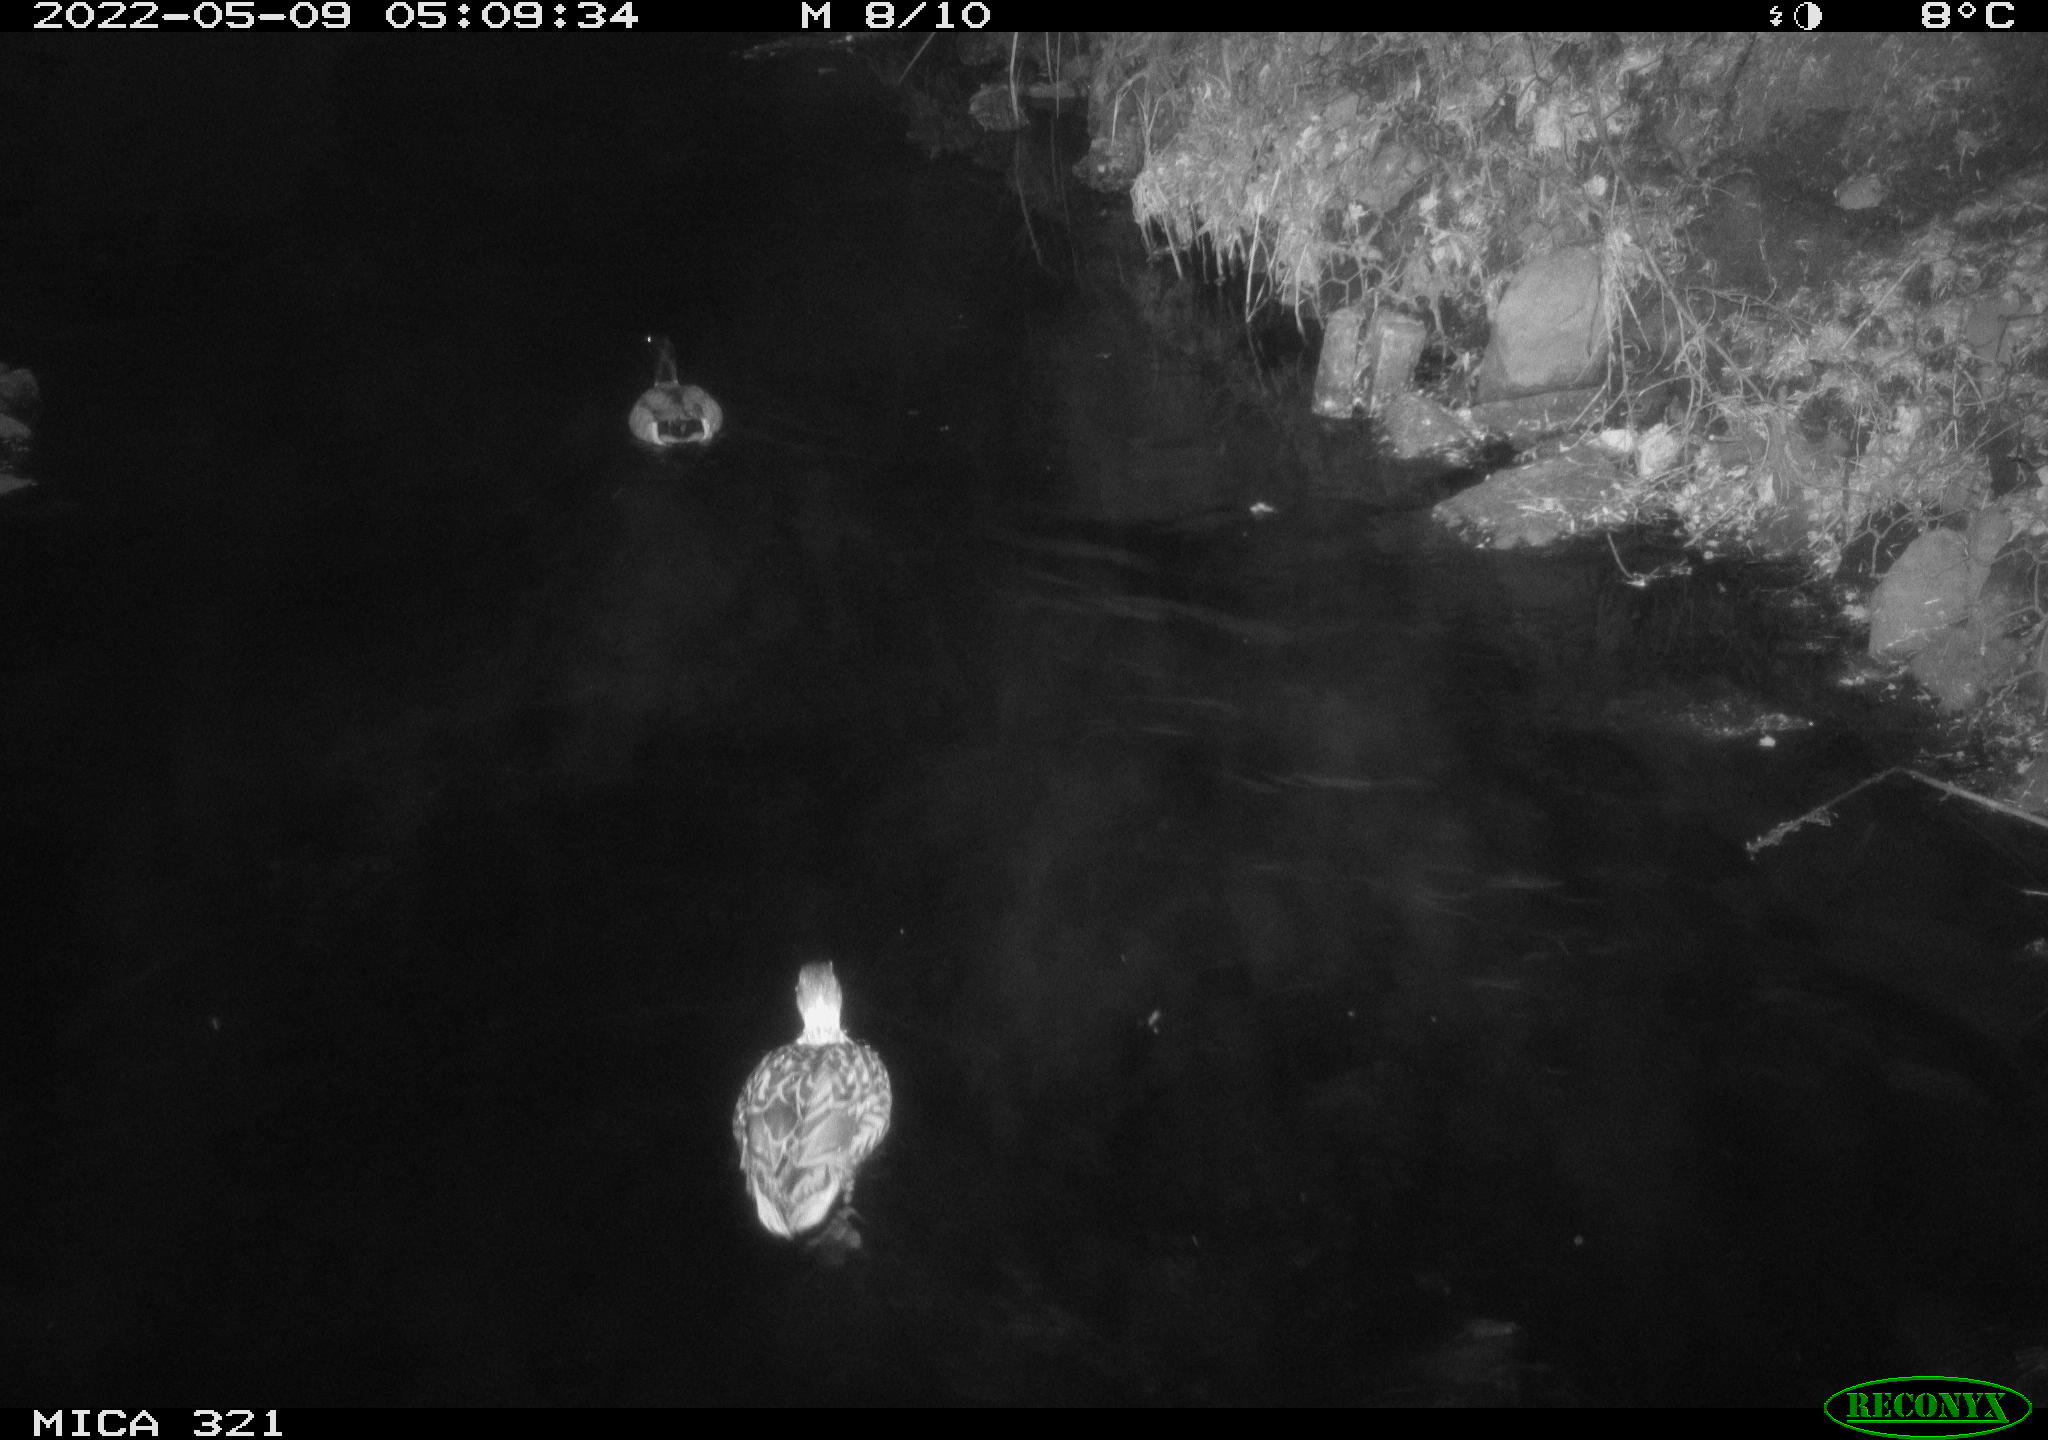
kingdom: Animalia
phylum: Chordata
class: Aves
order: Anseriformes
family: Anatidae
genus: Anas
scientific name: Anas platyrhynchos
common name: Mallard
